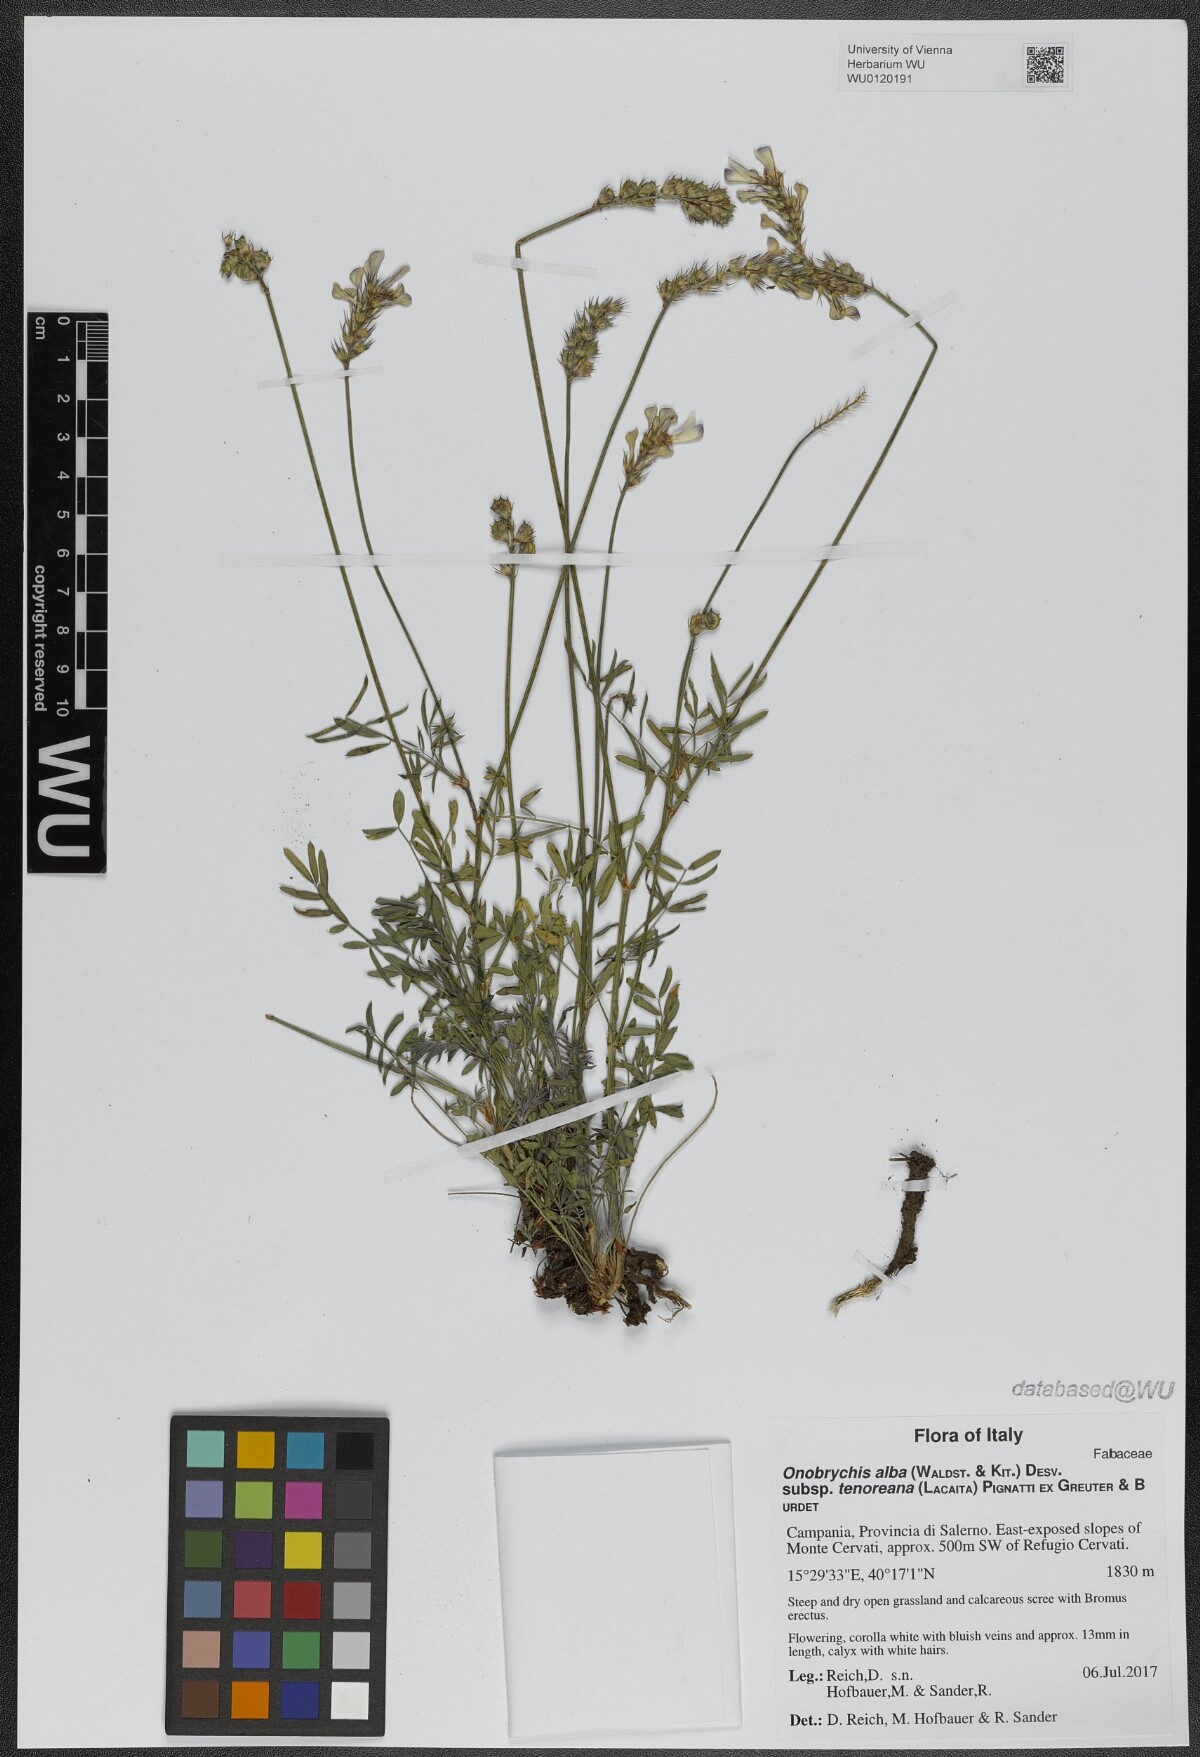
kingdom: Plantae
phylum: Tracheophyta
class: Magnoliopsida
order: Fabales
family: Fabaceae
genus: Onobrychis
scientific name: Onobrychis alba
